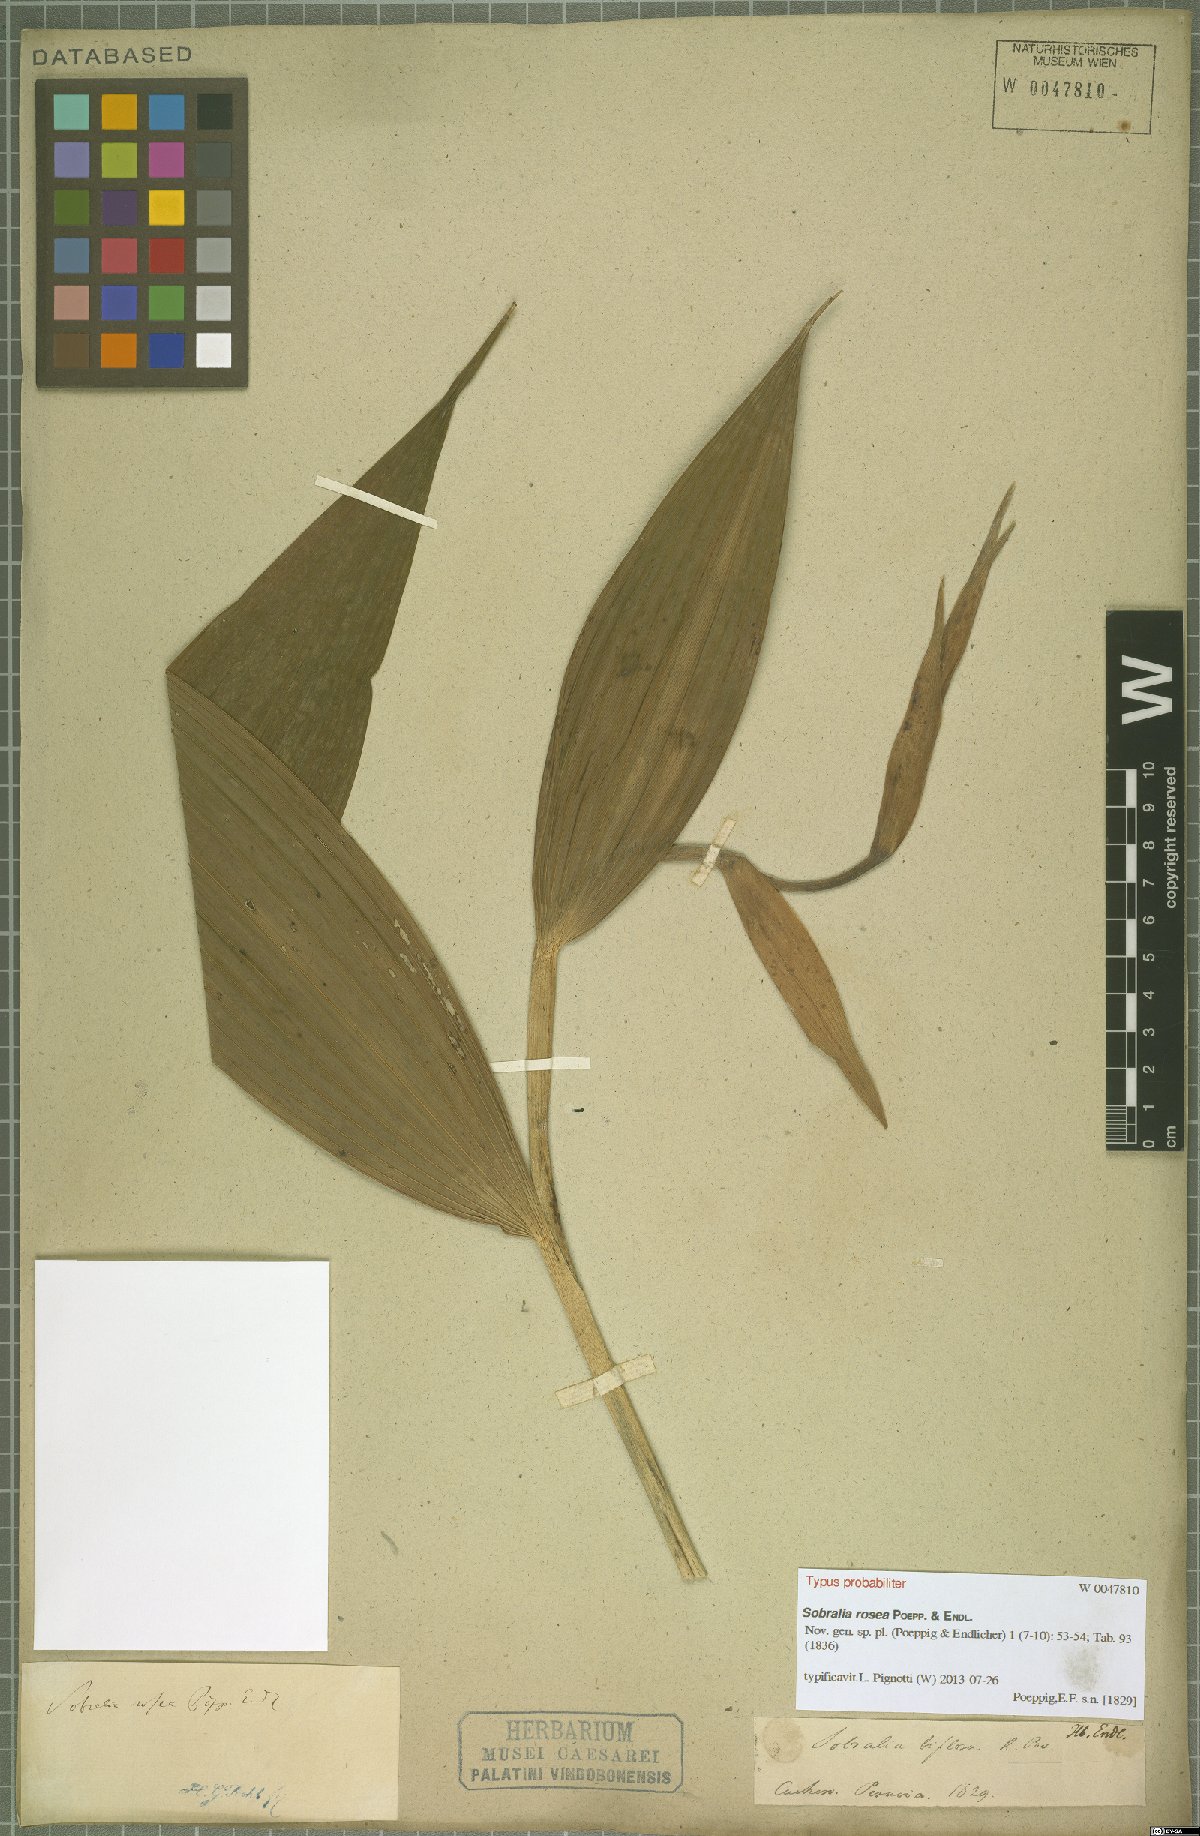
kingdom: Plantae
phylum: Tracheophyta
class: Liliopsida
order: Asparagales
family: Orchidaceae
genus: Sobralia
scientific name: Sobralia rosea
